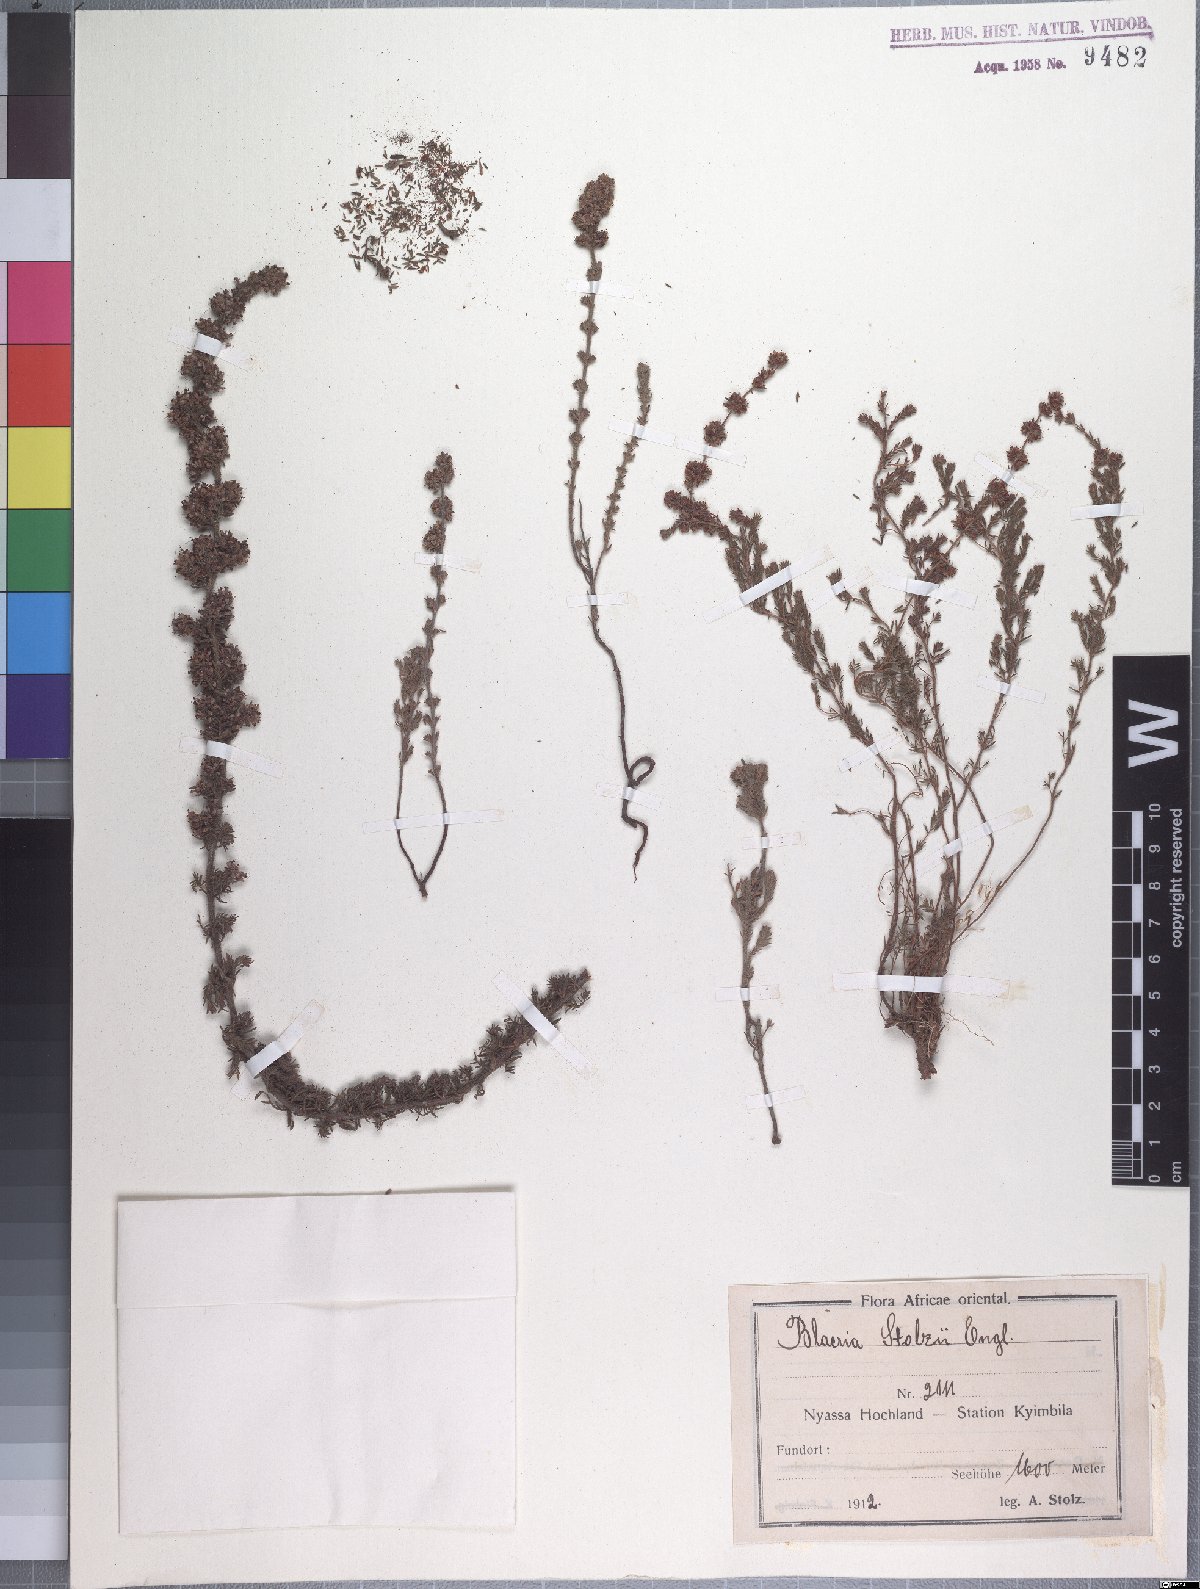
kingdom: Plantae
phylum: Tracheophyta
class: Magnoliopsida
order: Ericales
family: Ericaceae
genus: Erica
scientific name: Erica silvatica
